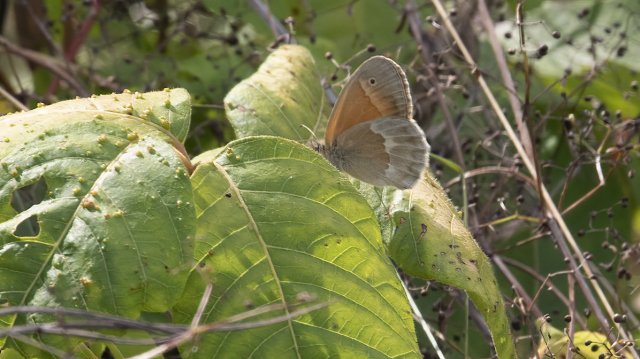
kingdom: Animalia
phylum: Arthropoda
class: Insecta
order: Lepidoptera
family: Nymphalidae
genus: Coenonympha
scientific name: Coenonympha tullia
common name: Large Heath
